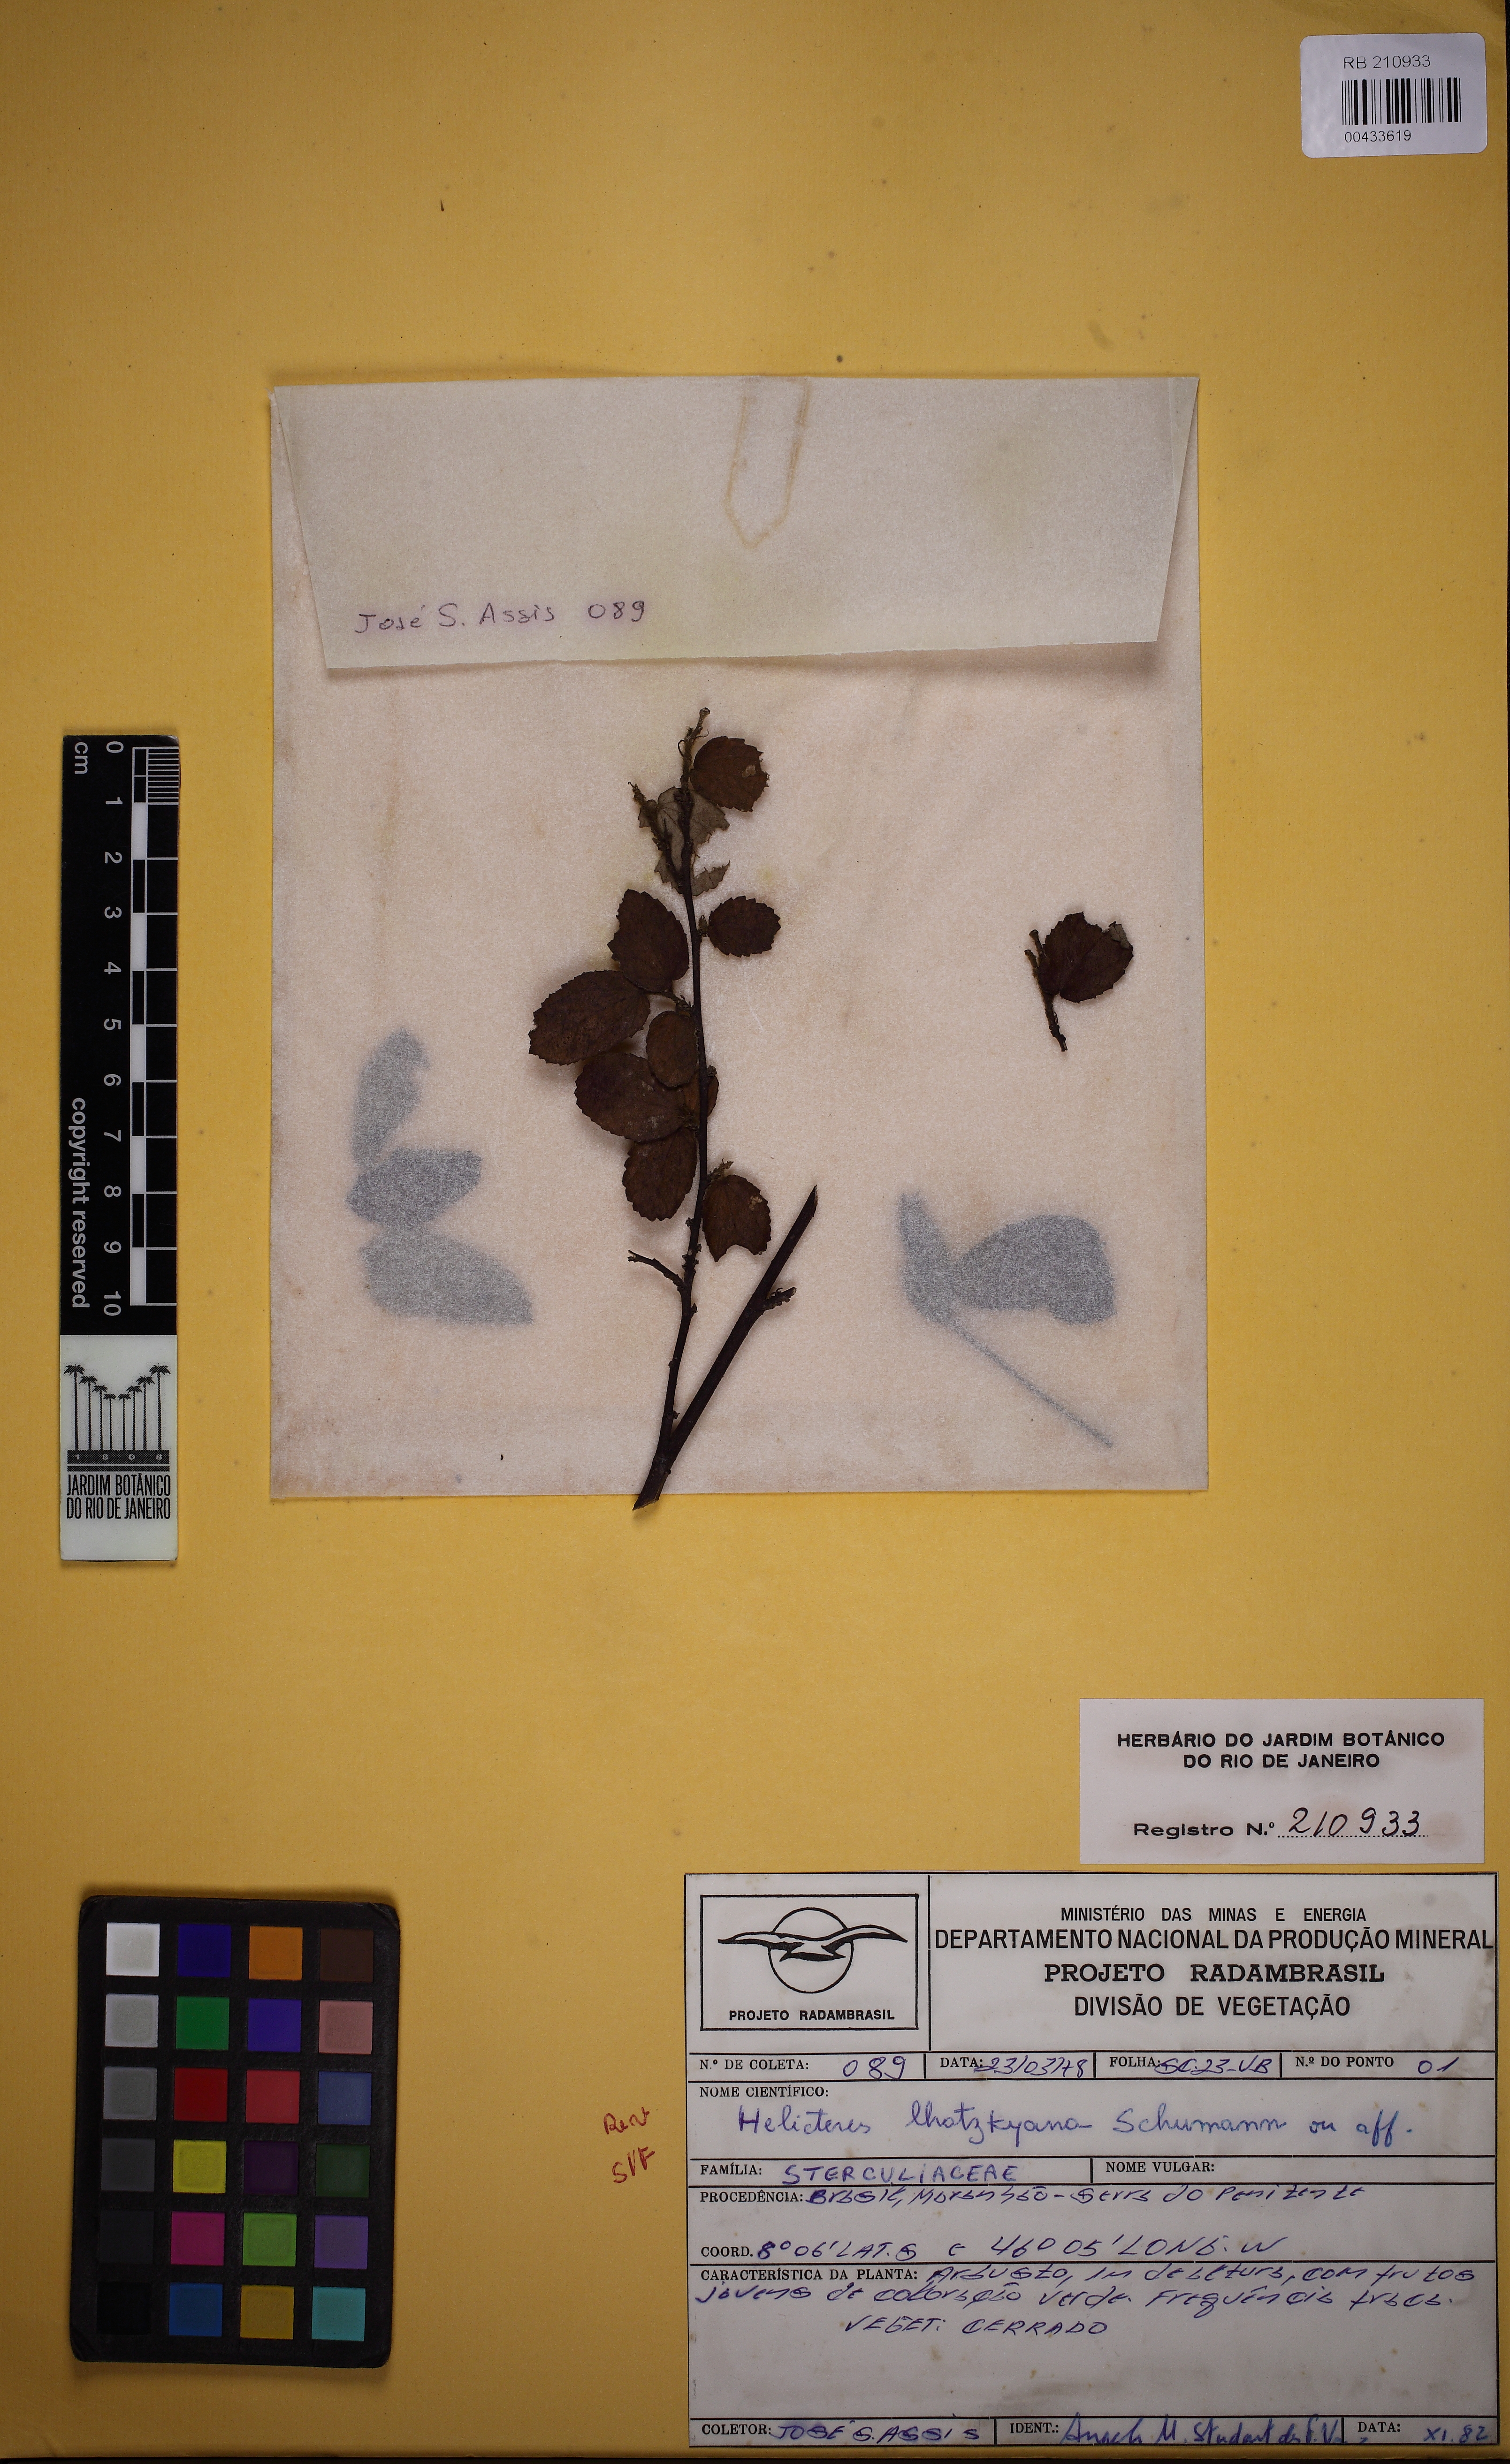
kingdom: Plantae
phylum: Tracheophyta
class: Magnoliopsida
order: Malvales
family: Malvaceae
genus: Helicteres
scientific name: Helicteres lhotzkyana
